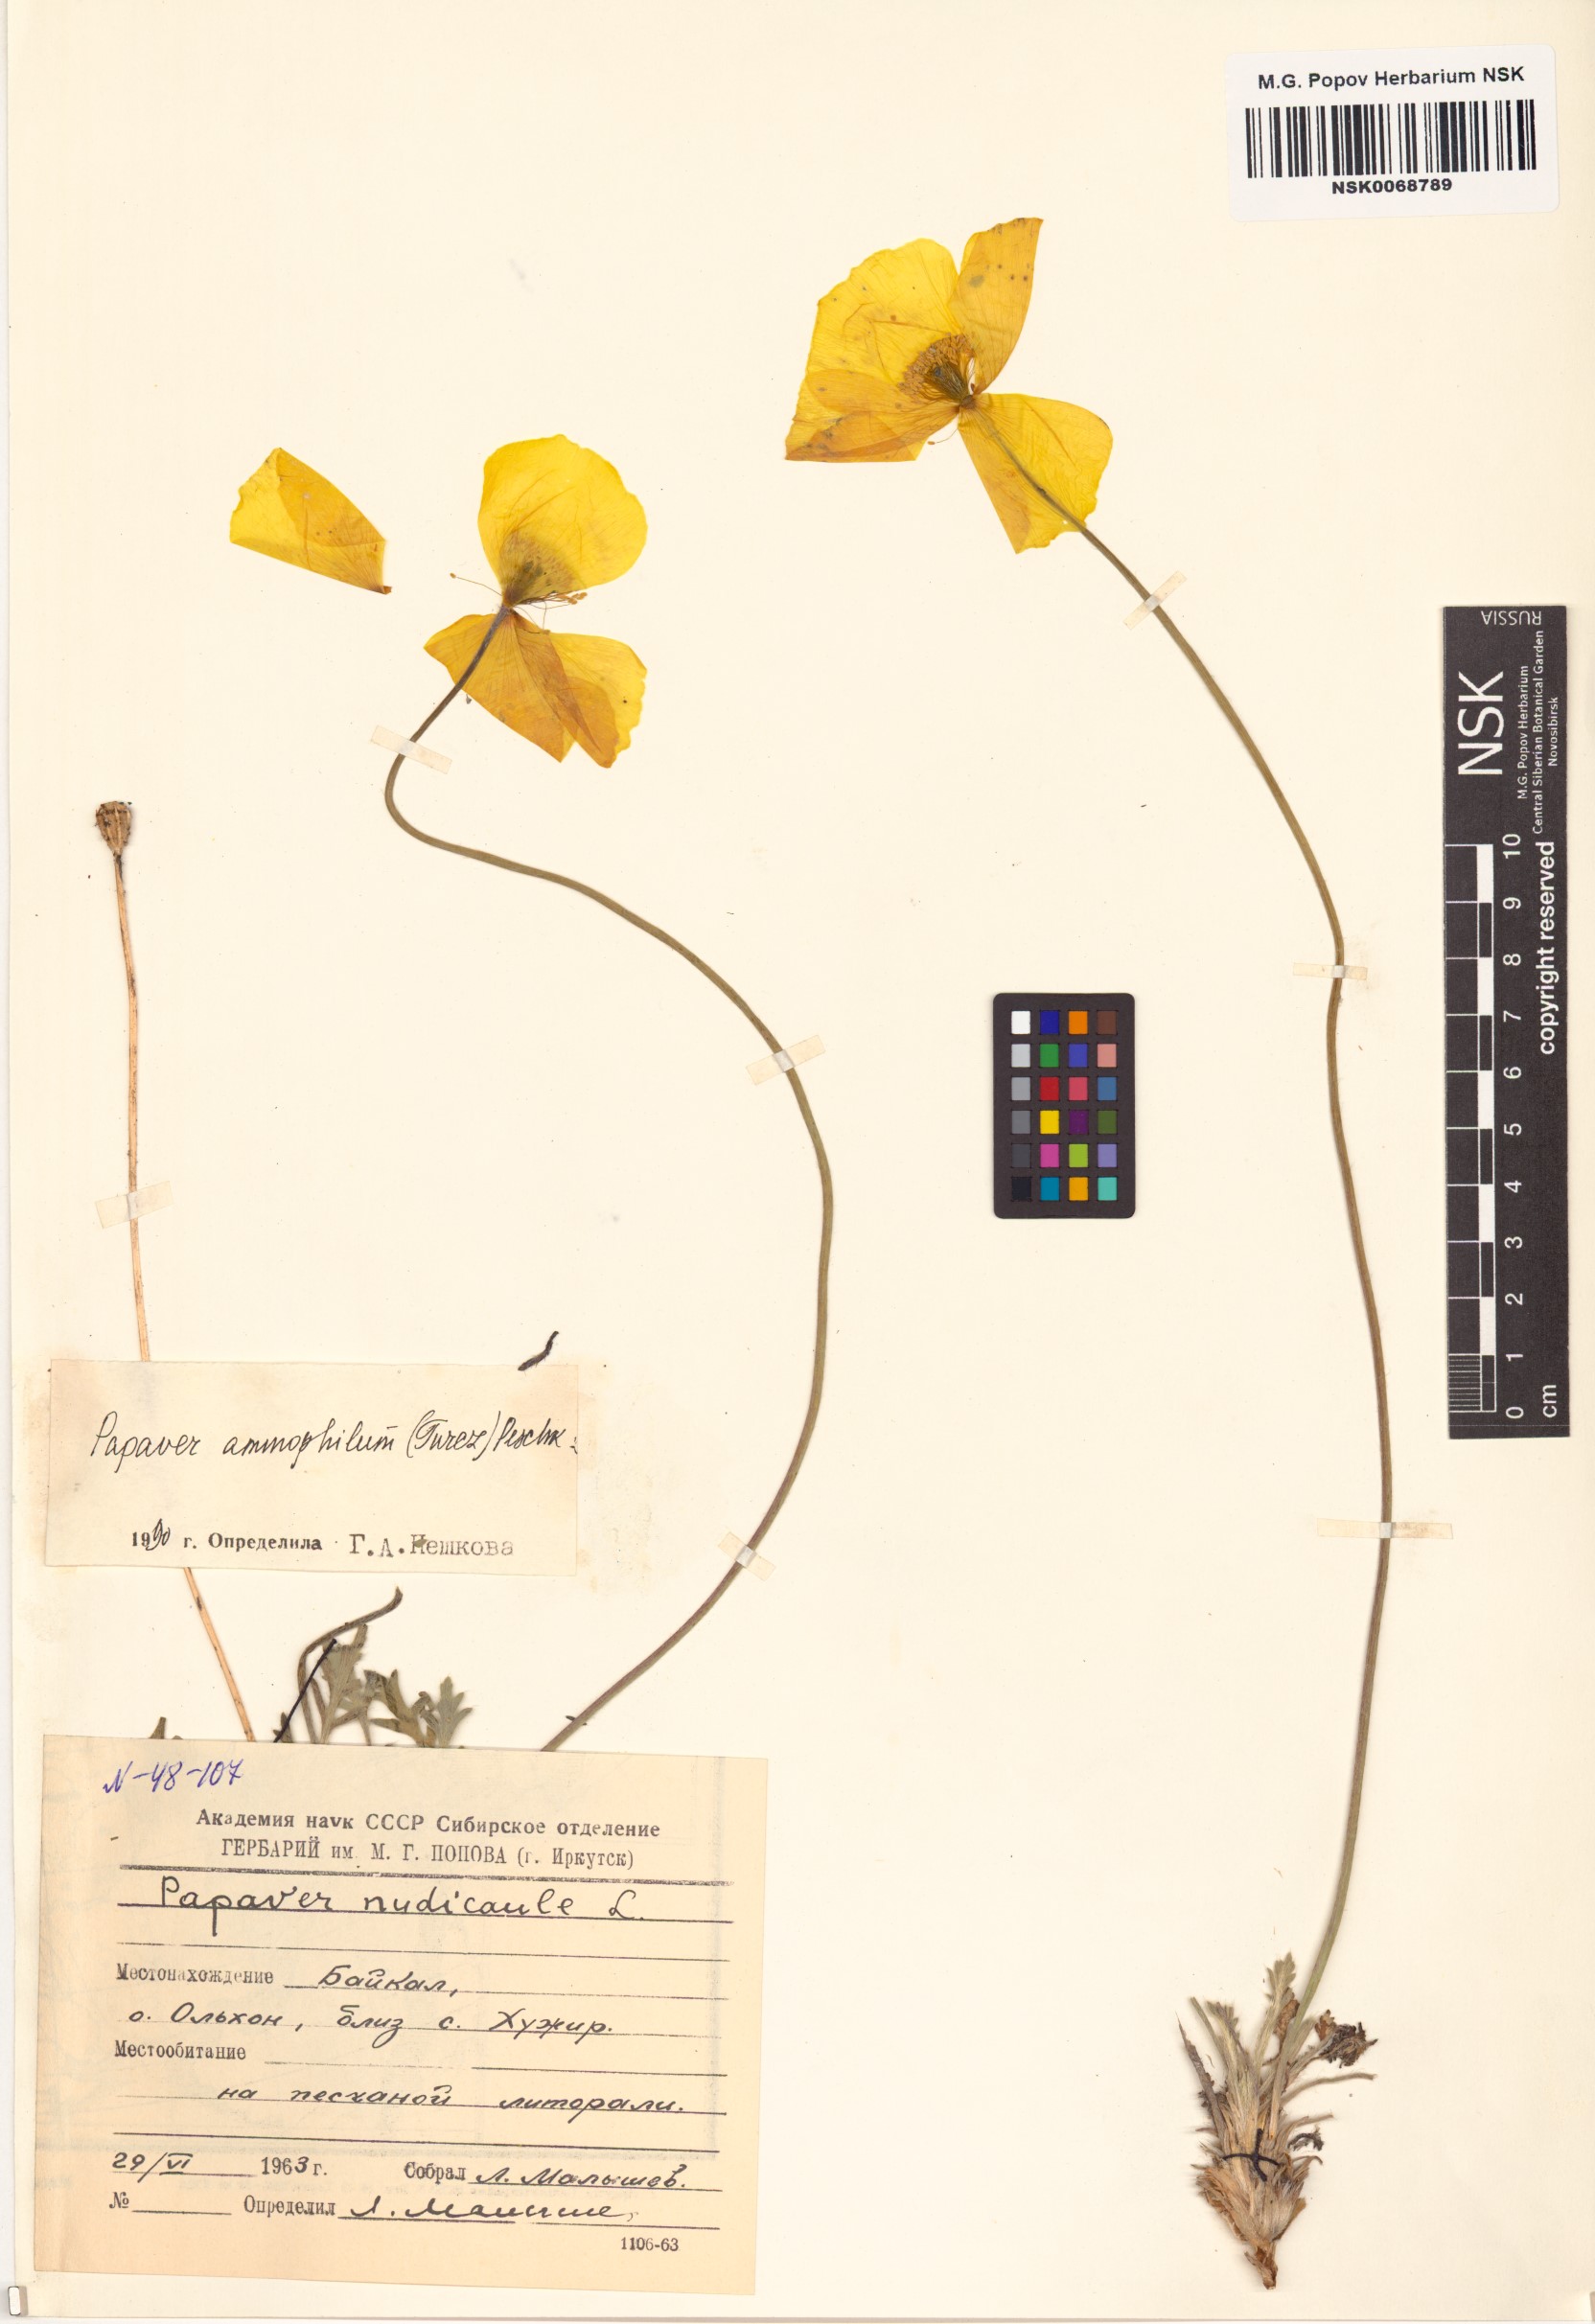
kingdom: Plantae
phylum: Tracheophyta
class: Magnoliopsida
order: Ranunculales
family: Papaveraceae
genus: Papaver
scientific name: Papaver nudicaule
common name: Arctic poppy
